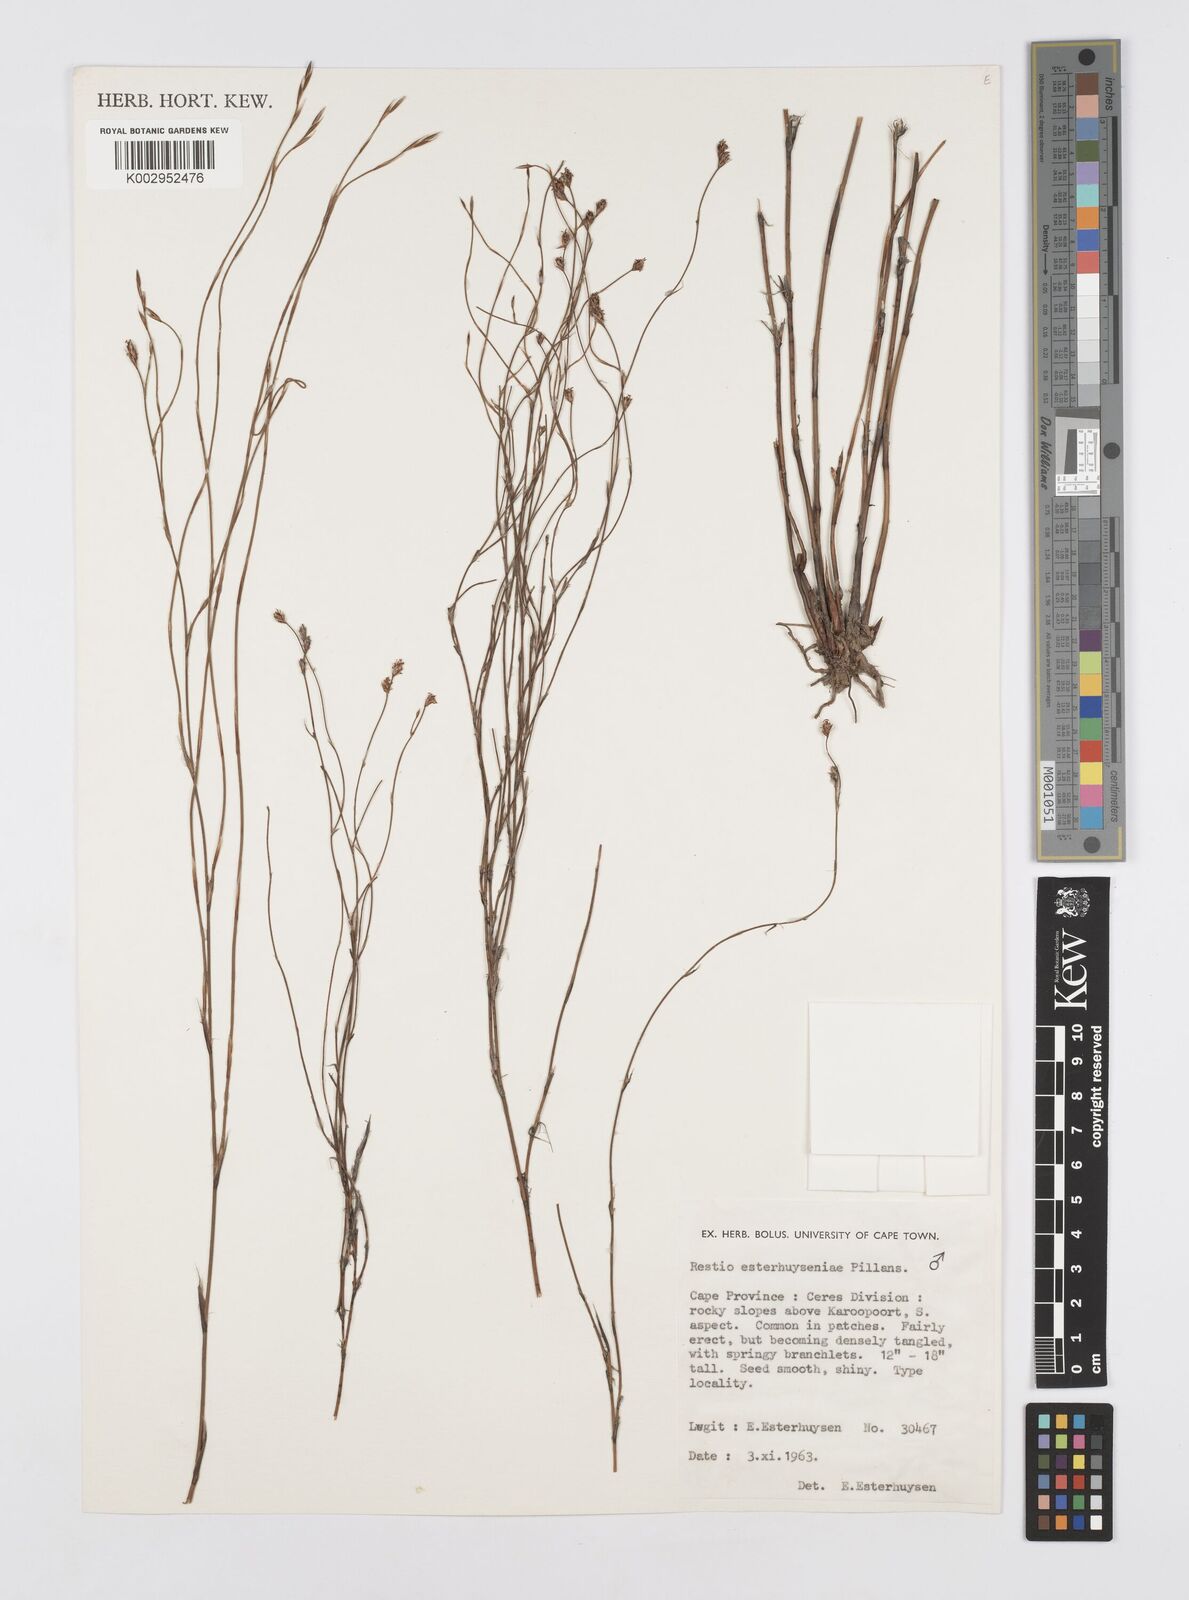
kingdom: Plantae
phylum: Tracheophyta
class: Liliopsida
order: Poales
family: Restionaceae
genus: Restio
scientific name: Restio esterhuyseniae
